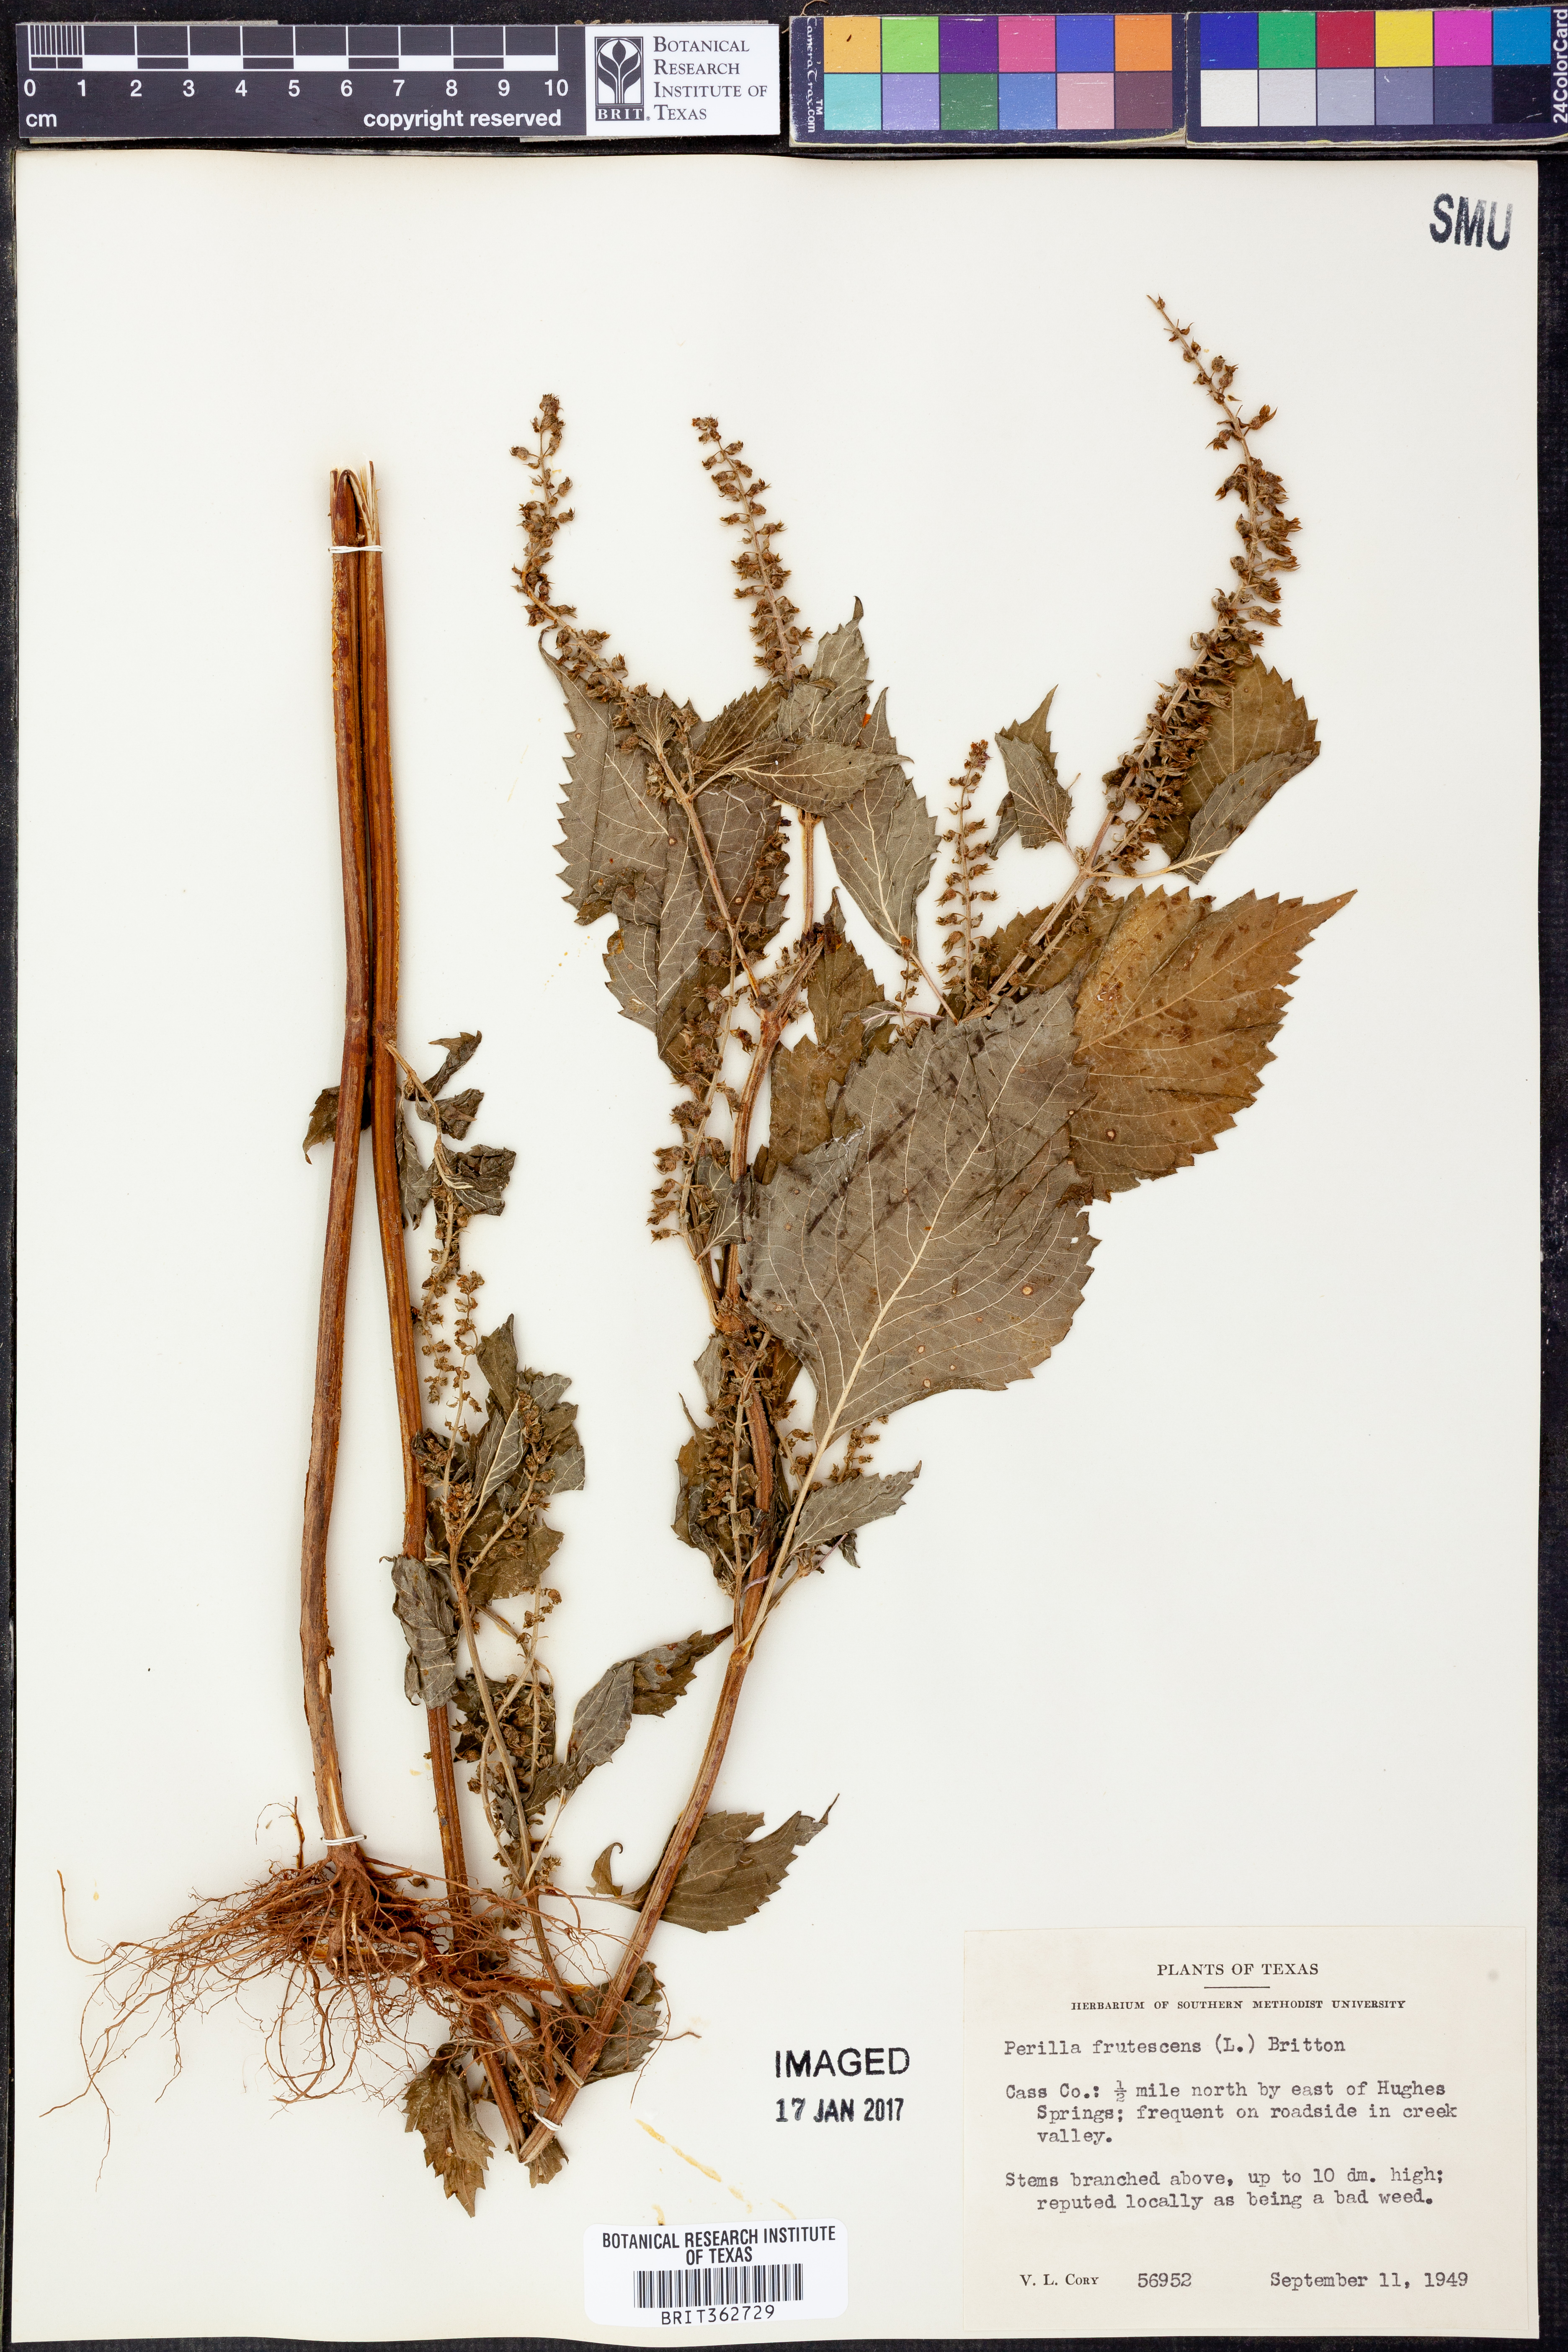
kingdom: Plantae
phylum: Tracheophyta
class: Magnoliopsida
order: Lamiales
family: Lamiaceae
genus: Perilla
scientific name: Perilla frutescens
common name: Perilla
